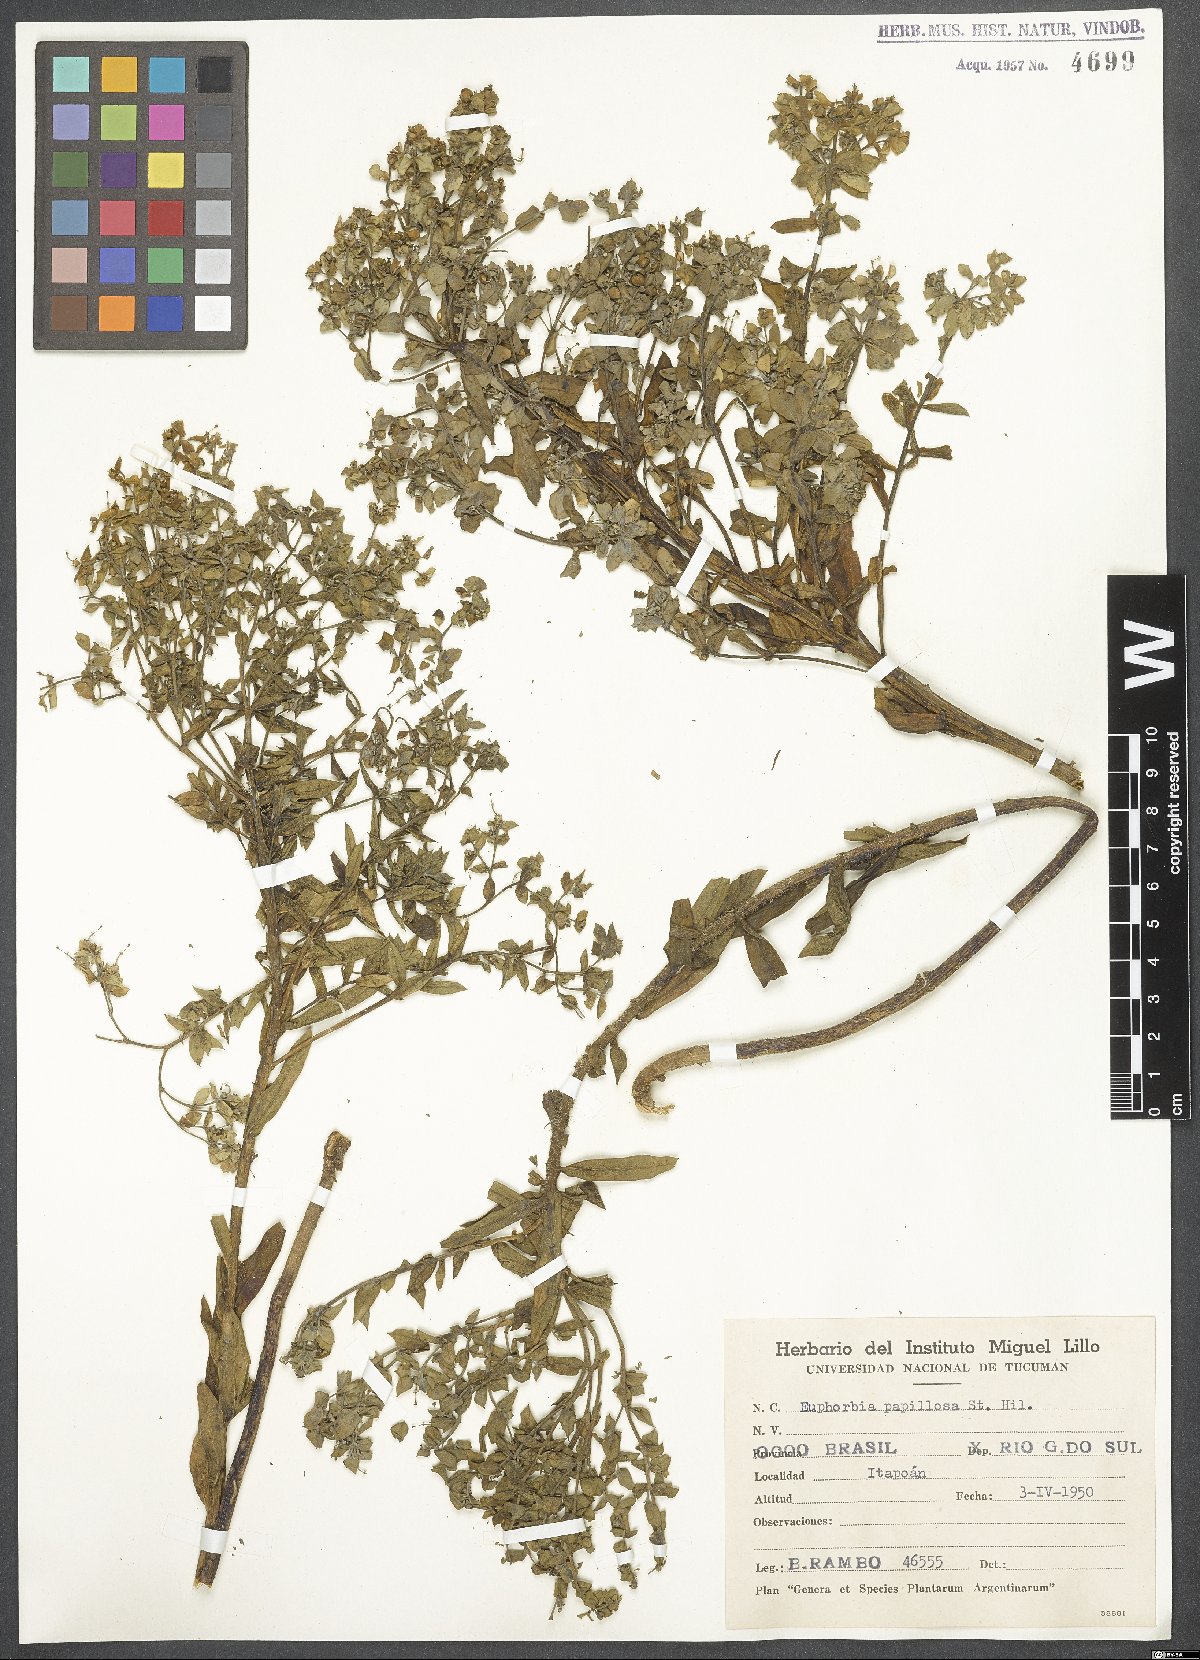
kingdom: Plantae
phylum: Tracheophyta
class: Magnoliopsida
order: Malpighiales
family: Euphorbiaceae
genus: Euphorbia
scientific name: Euphorbia papillosa
